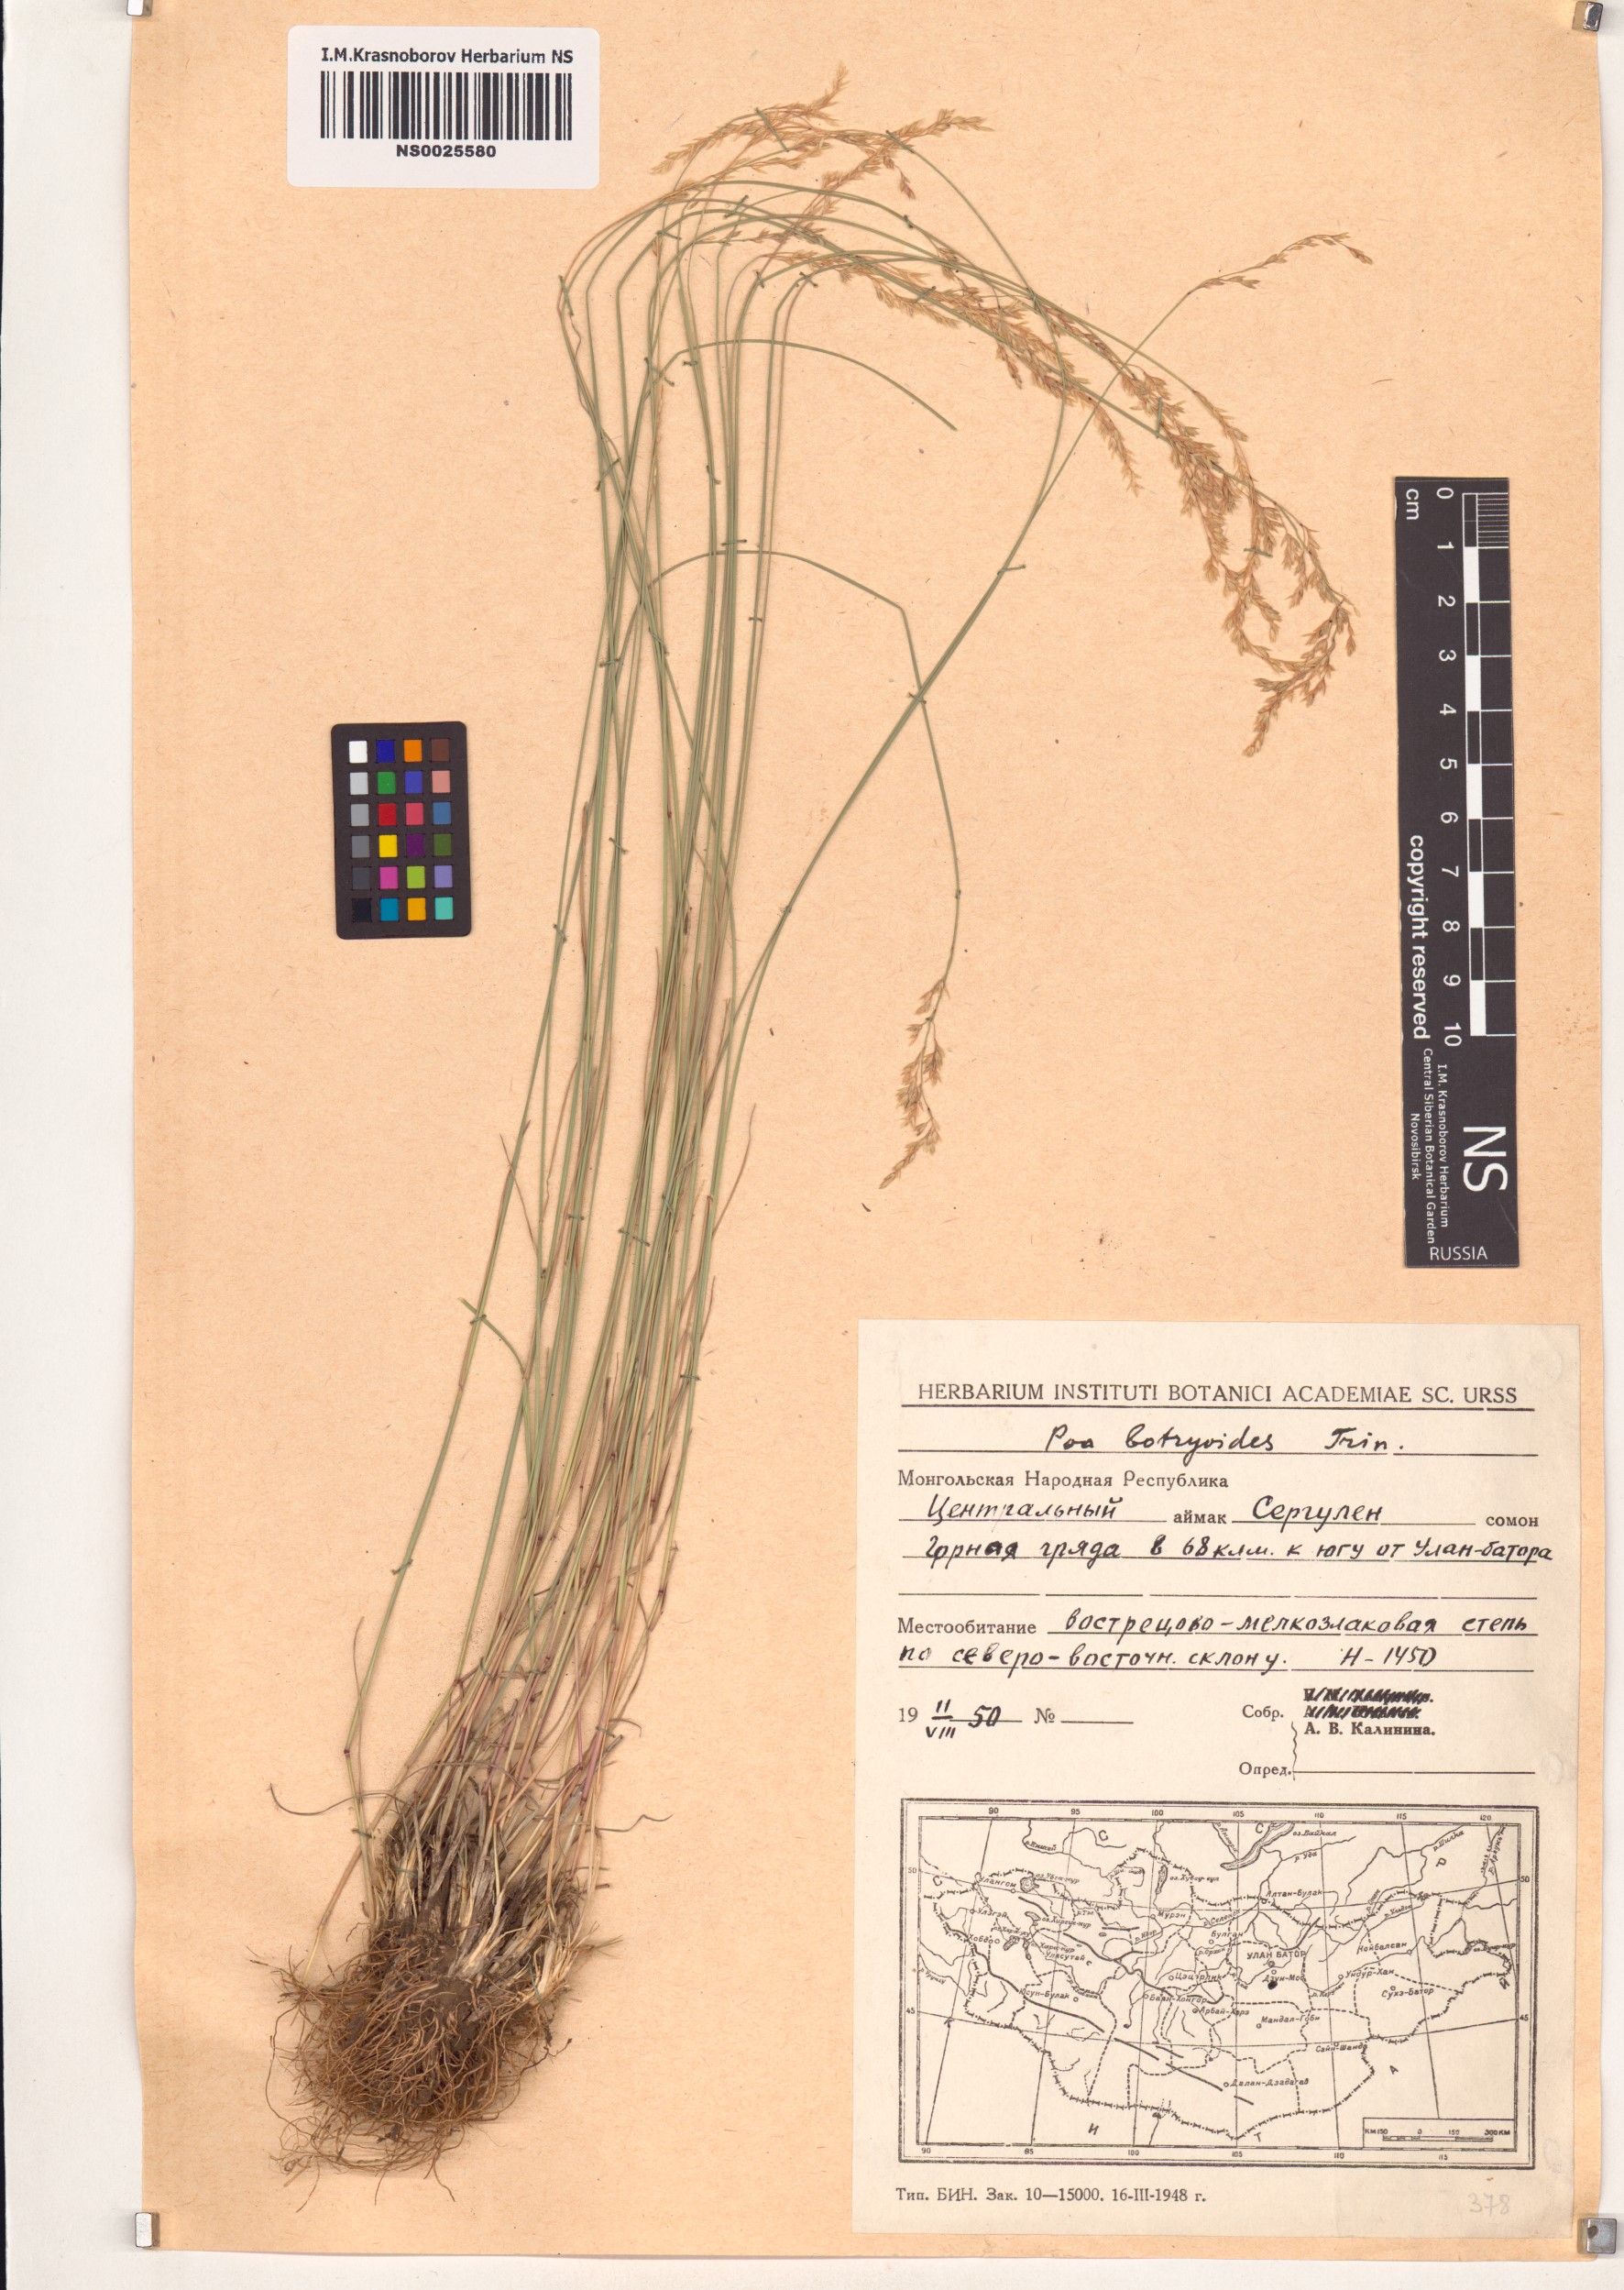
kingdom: Plantae
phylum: Tracheophyta
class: Liliopsida
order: Poales
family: Poaceae
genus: Poa
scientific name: Poa attenuata
